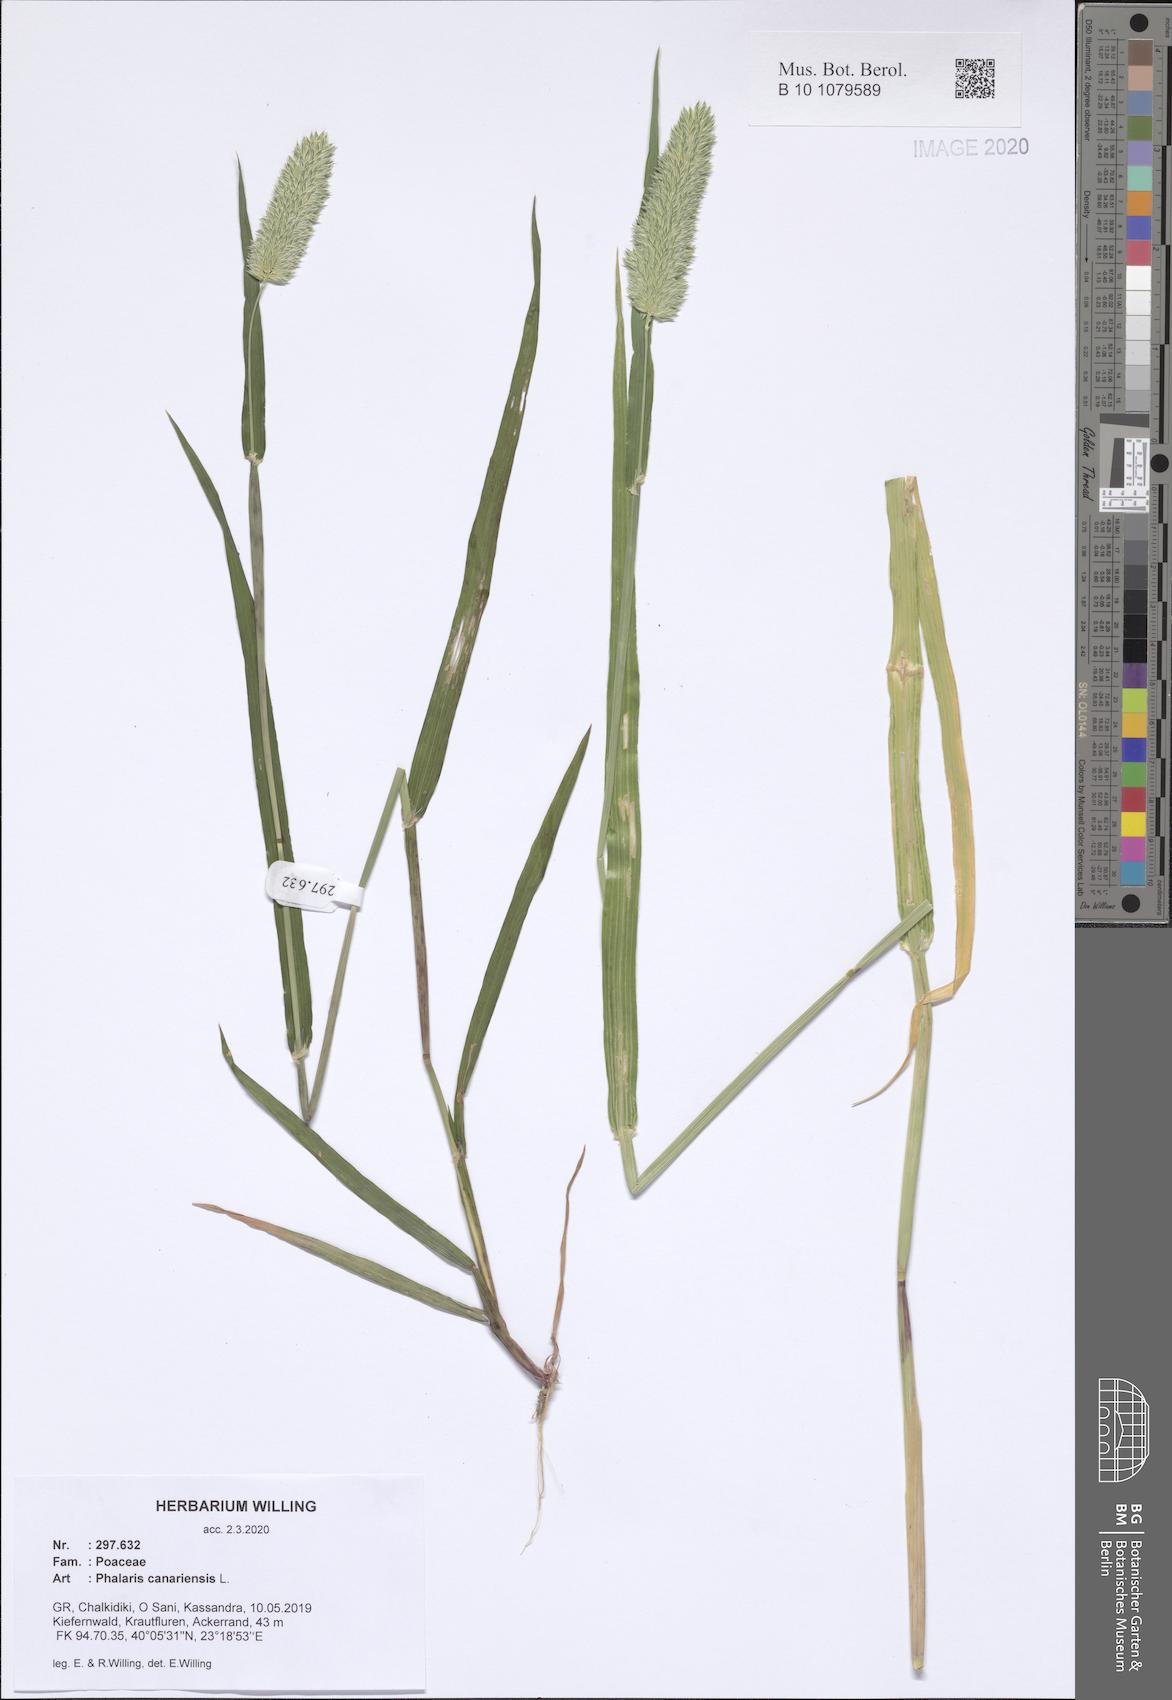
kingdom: Plantae
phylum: Tracheophyta
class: Liliopsida
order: Poales
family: Poaceae
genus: Phalaris
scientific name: Phalaris canariensis
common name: Annual canarygrass
